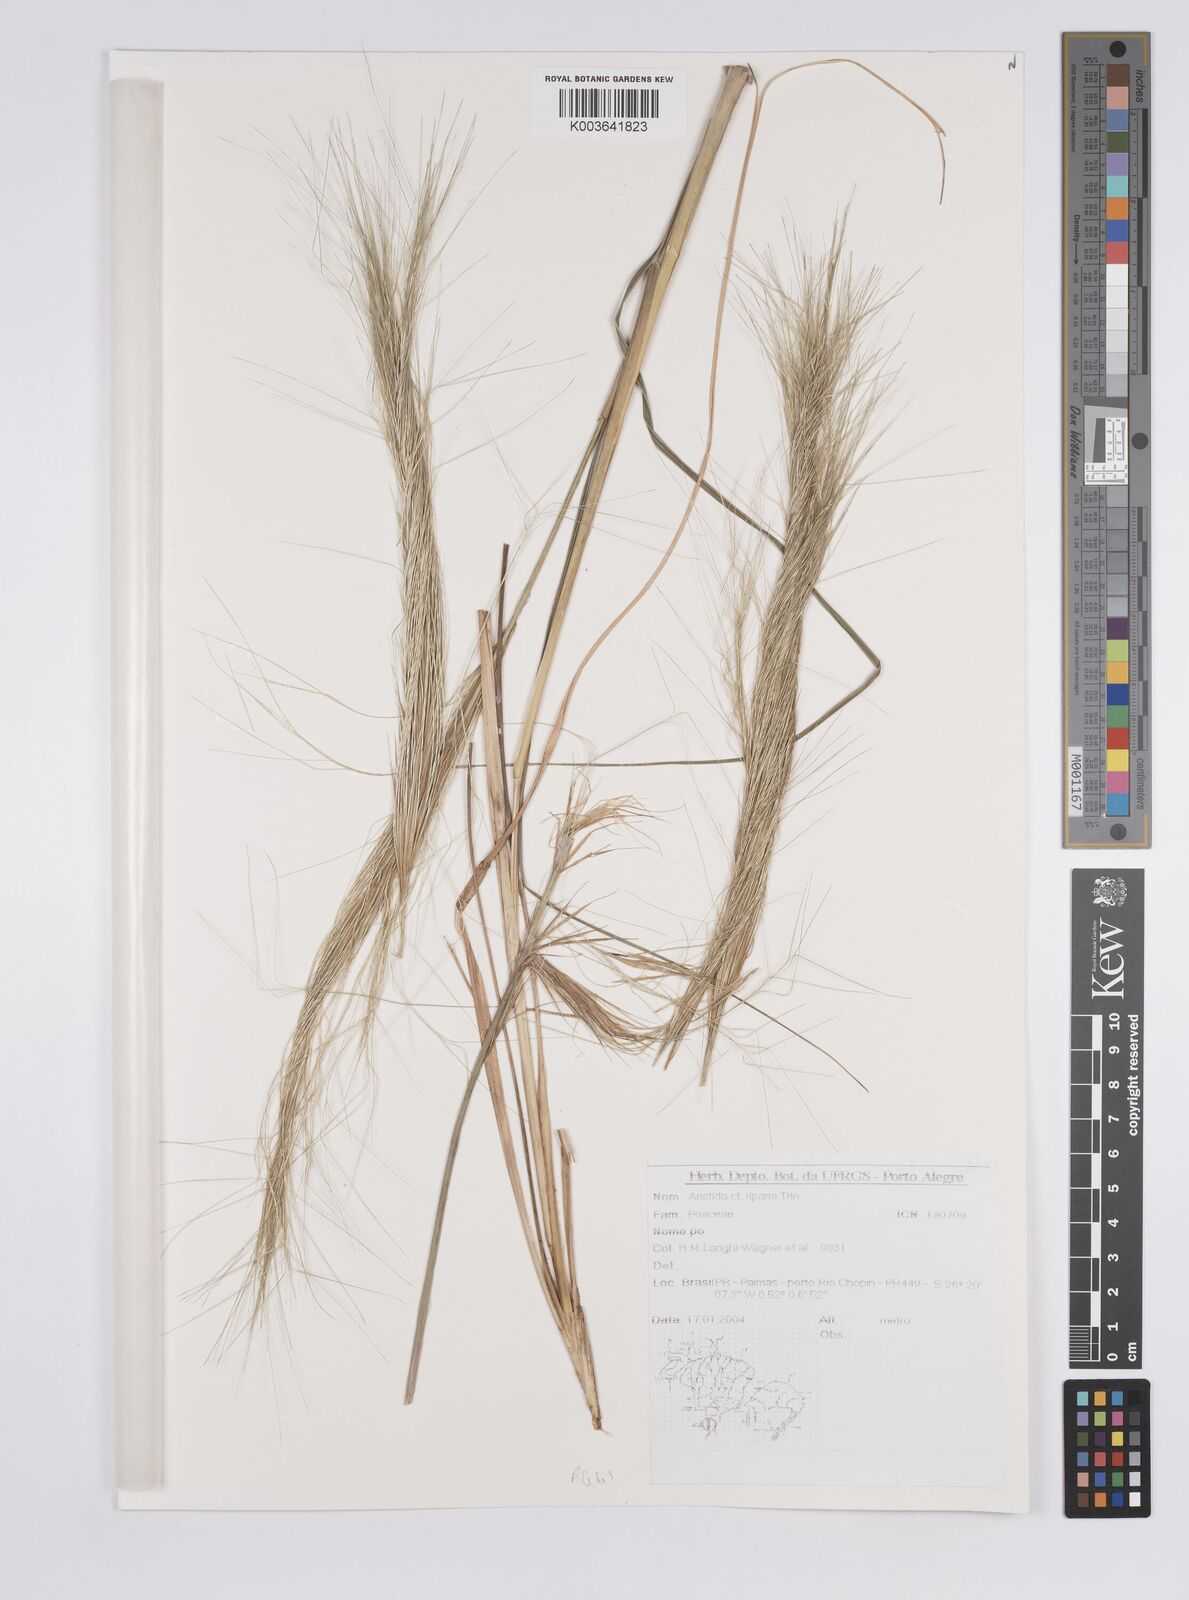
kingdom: Plantae
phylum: Tracheophyta
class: Liliopsida
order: Poales
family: Poaceae
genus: Aristida
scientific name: Aristida riparia
